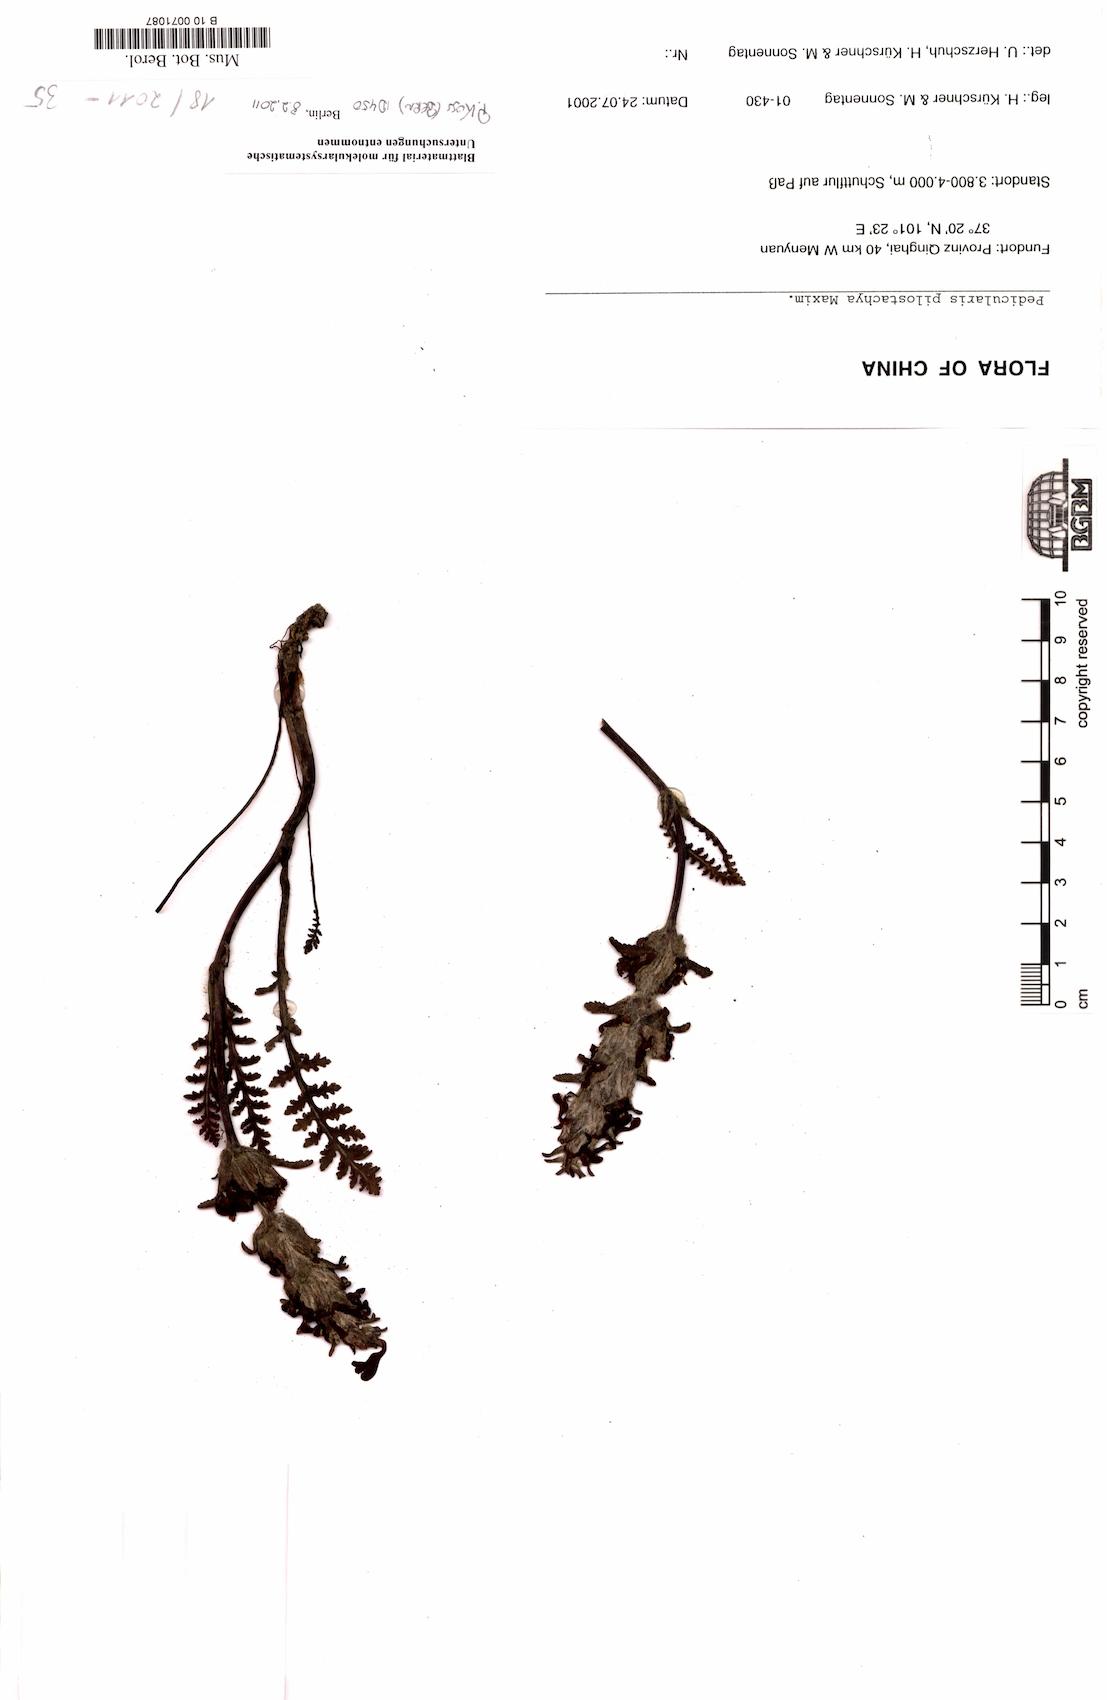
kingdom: Plantae
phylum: Tracheophyta
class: Magnoliopsida
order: Lamiales
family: Orobanchaceae
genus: Pedicularis
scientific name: Pedicularis pilostachya
